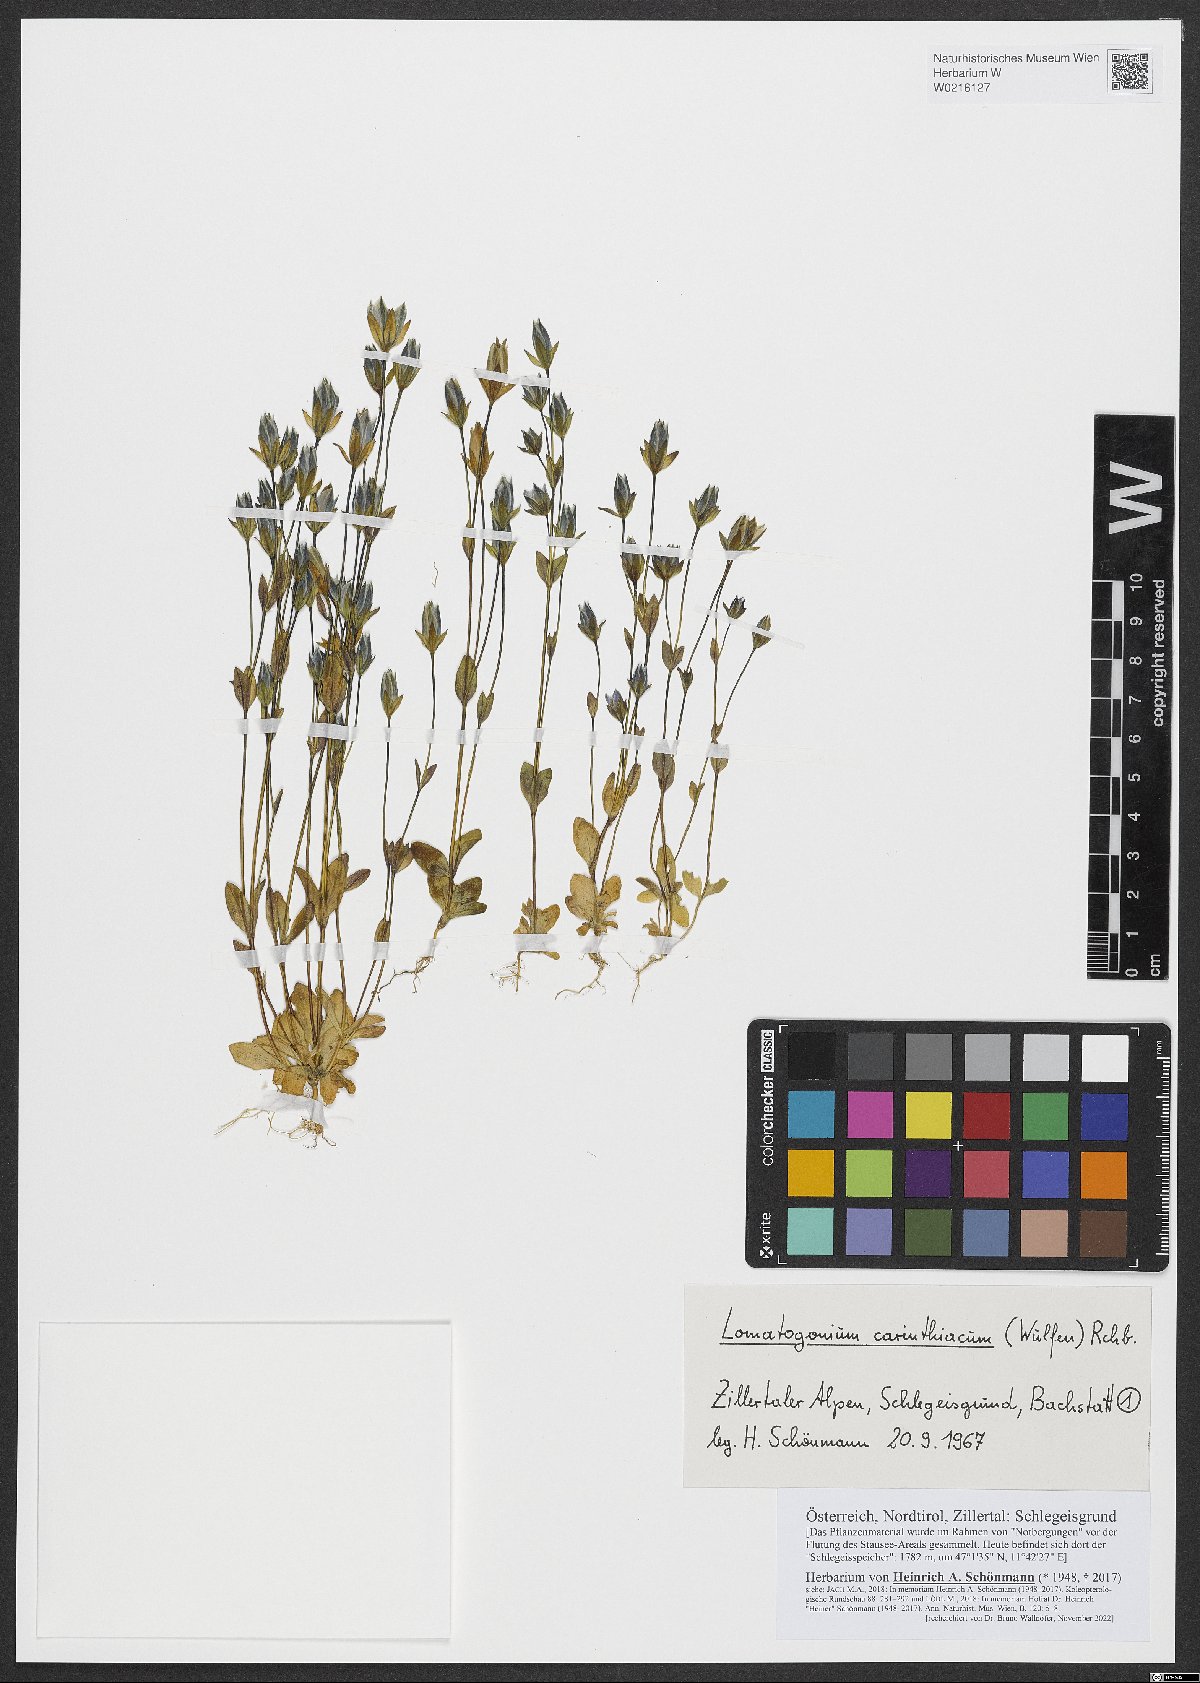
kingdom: Plantae
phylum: Tracheophyta
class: Magnoliopsida
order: Gentianales
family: Gentianaceae
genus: Lomatogonium
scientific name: Lomatogonium carinthiacum
